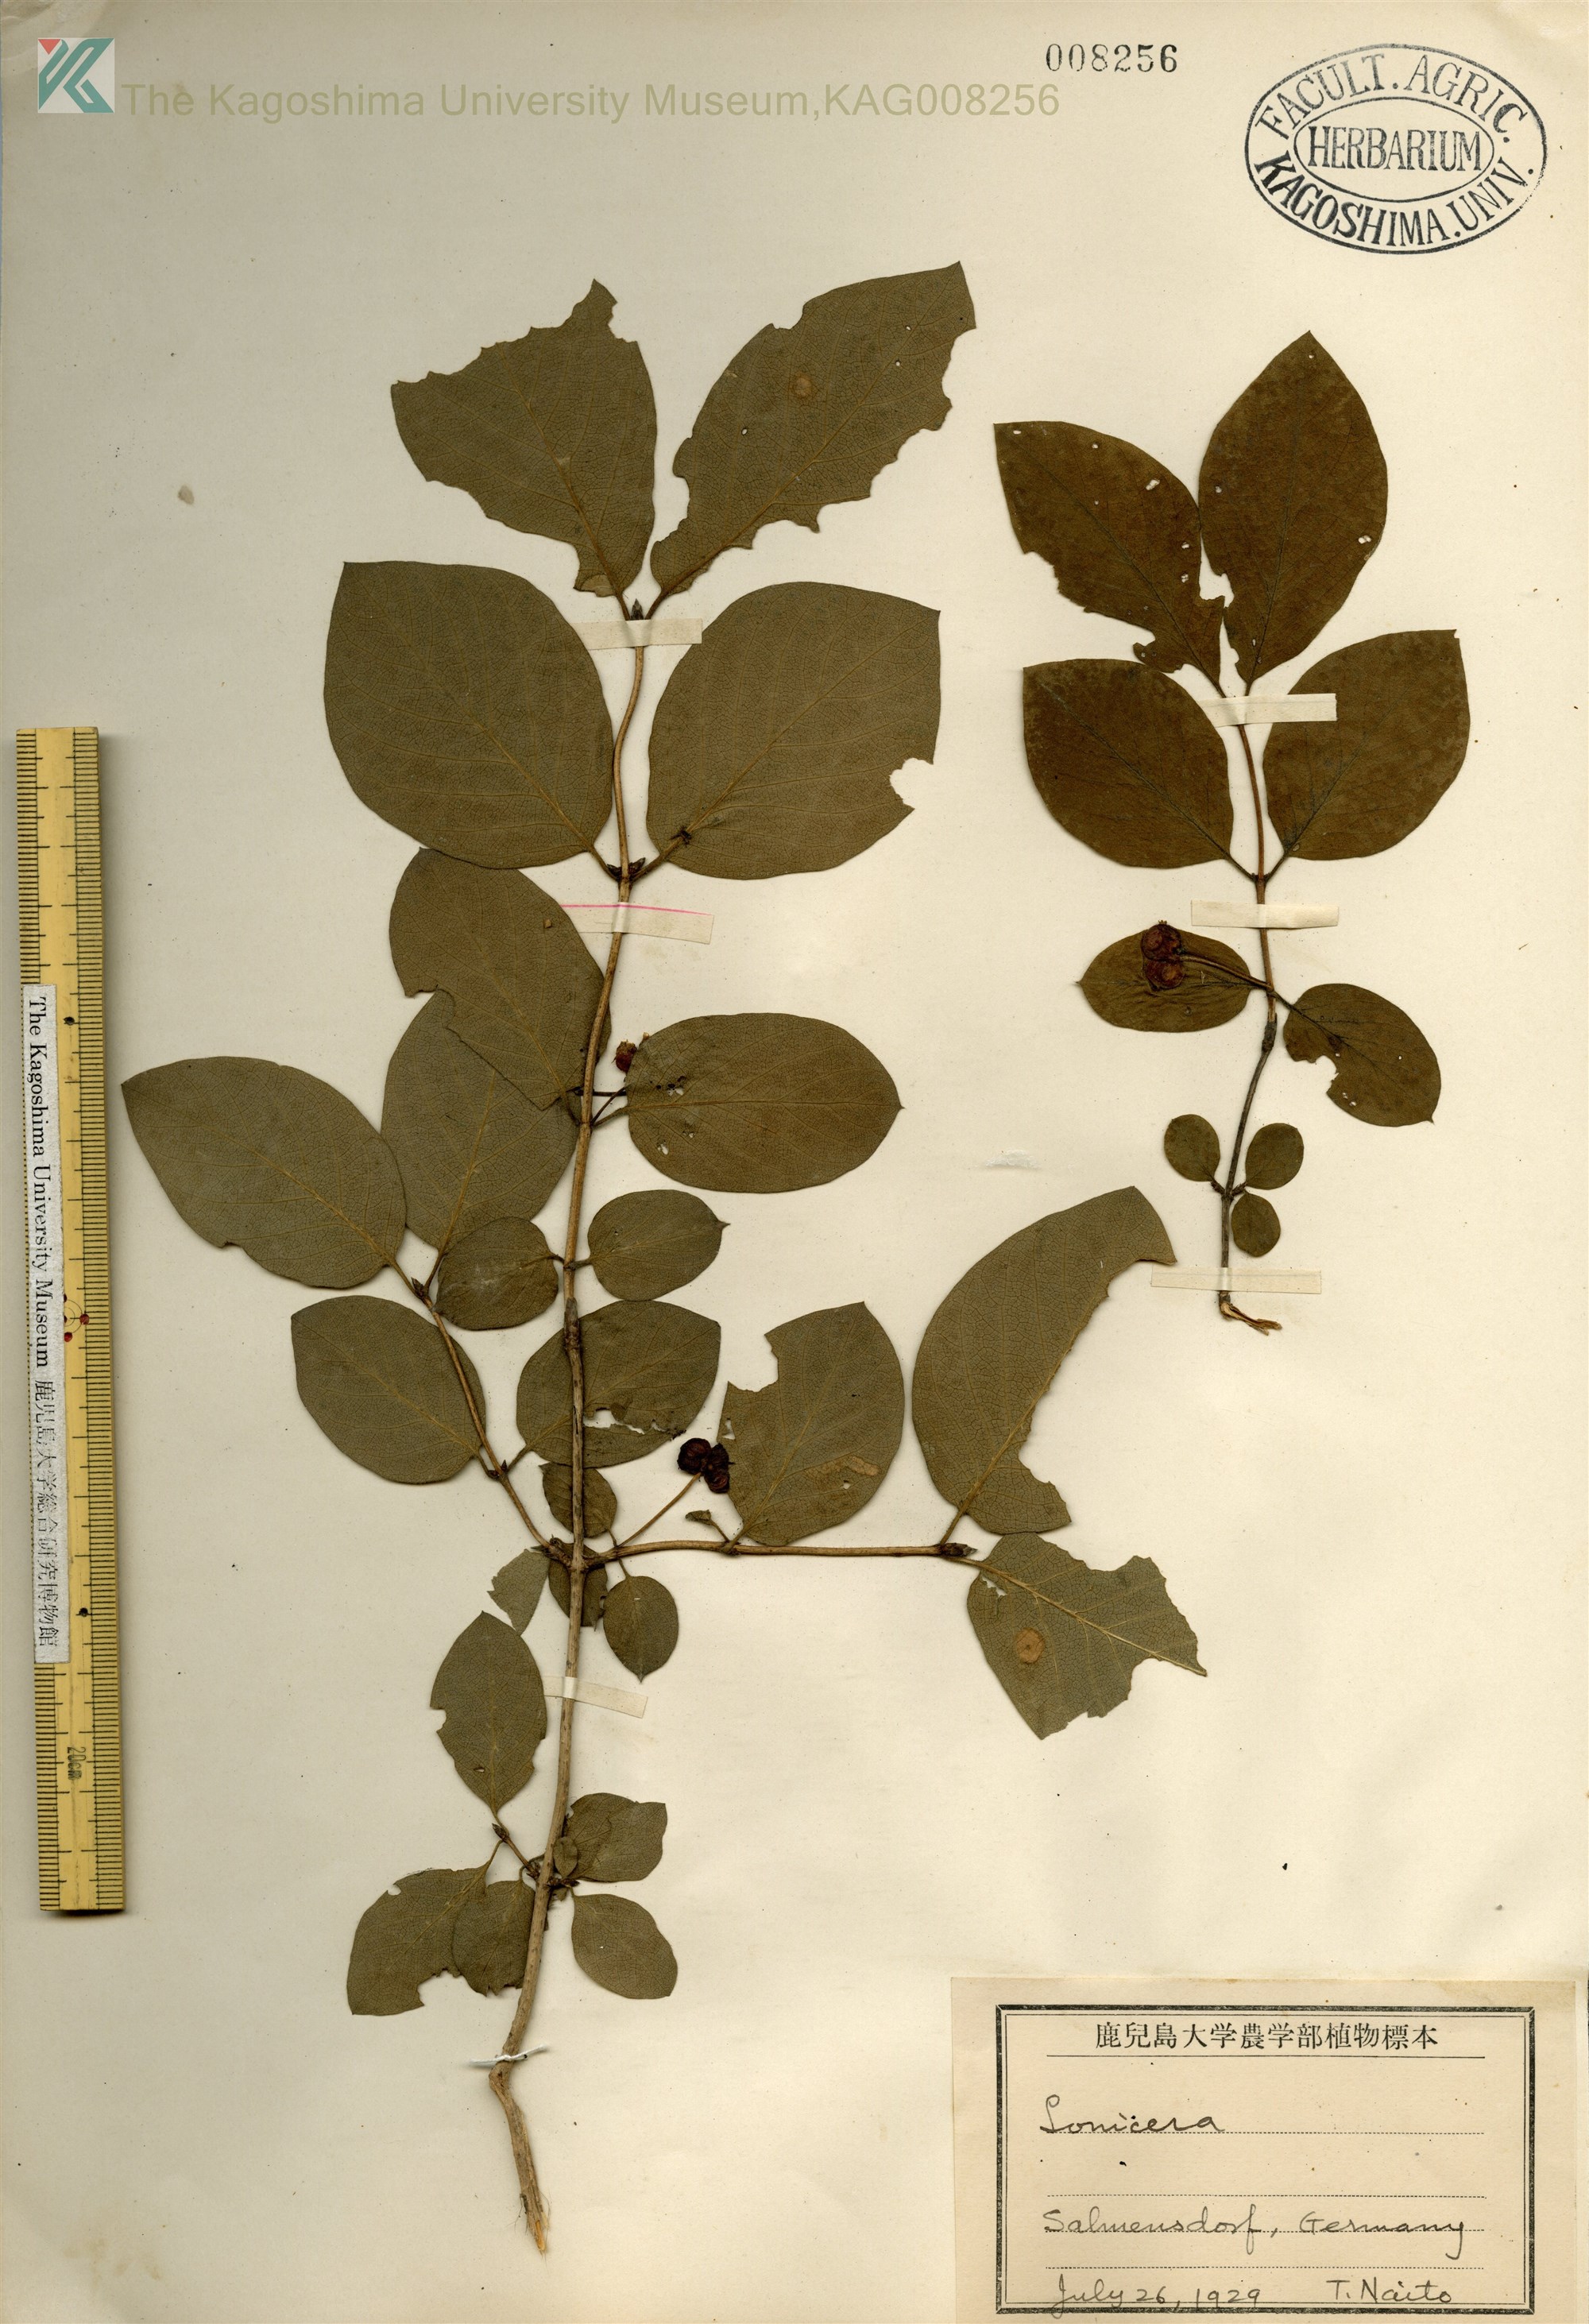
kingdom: Plantae
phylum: Tracheophyta
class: Magnoliopsida
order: Dipsacales
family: Caprifoliaceae
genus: Lonicera
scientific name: Lonicera xylosteum
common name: Fly honeysuckle
